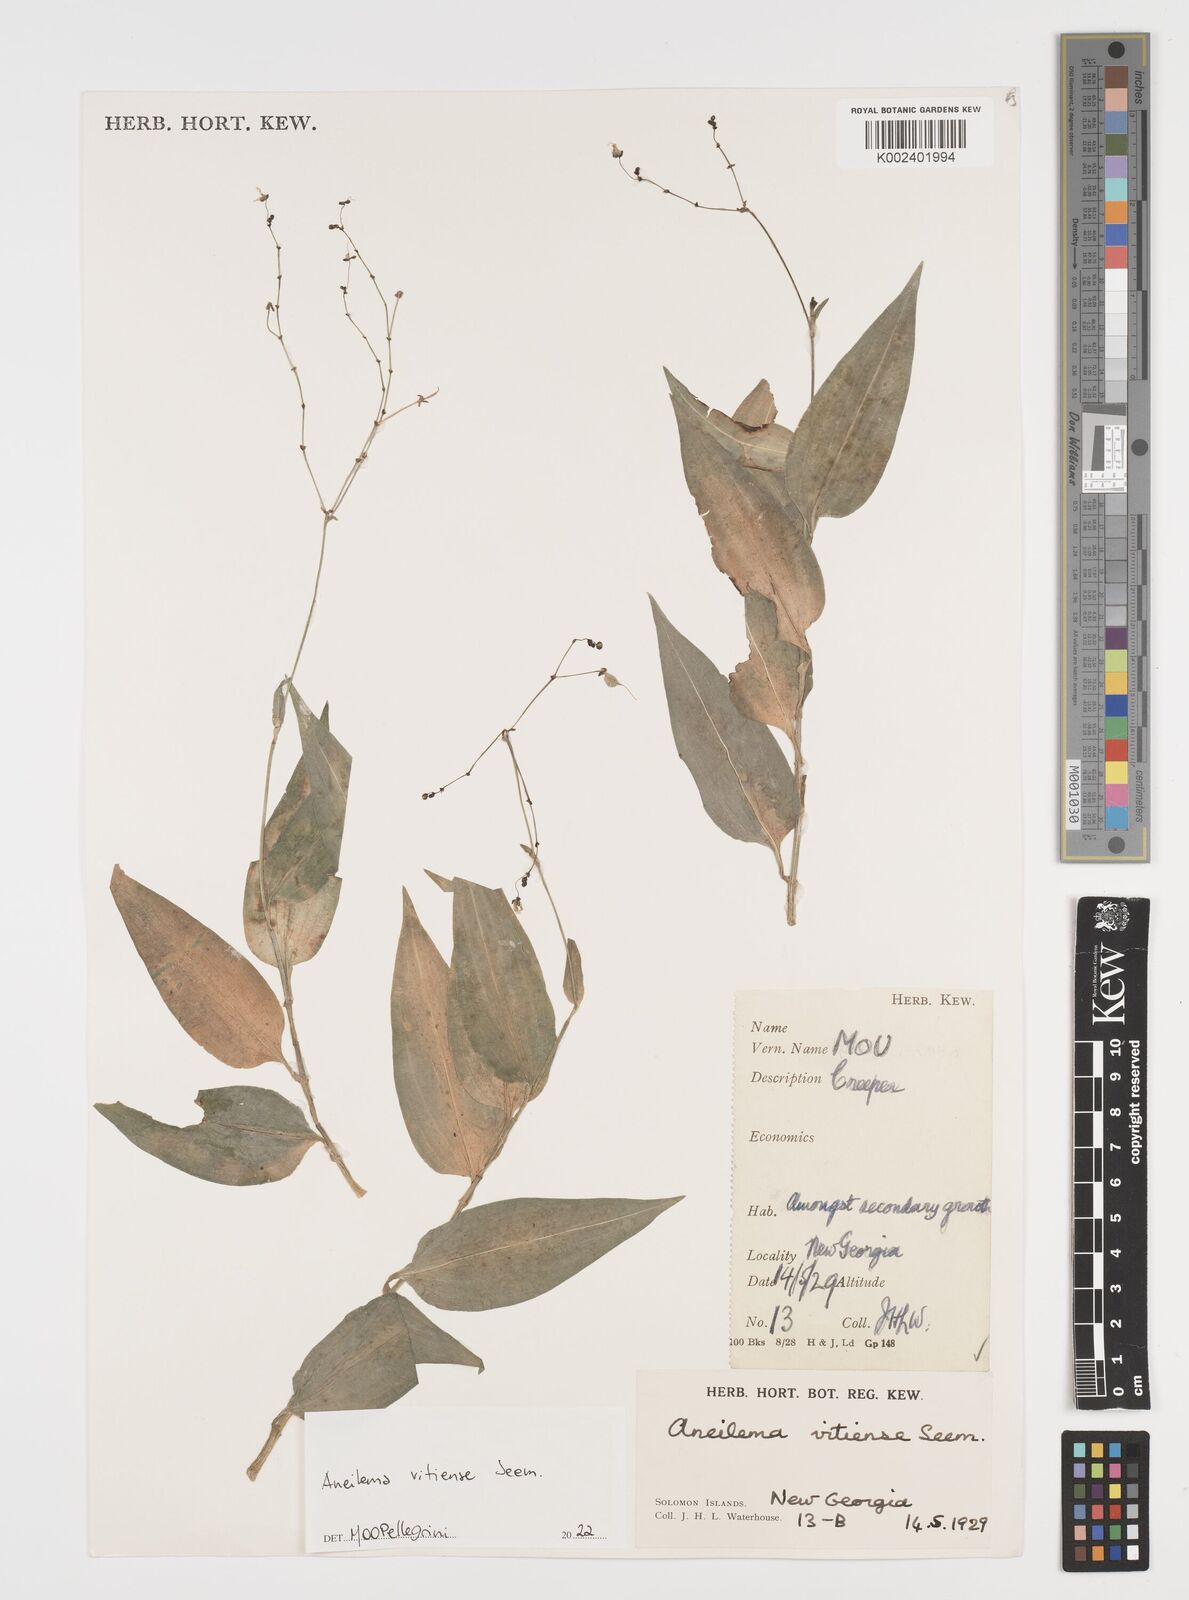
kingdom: Plantae
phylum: Tracheophyta
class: Liliopsida
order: Commelinales
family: Commelinaceae
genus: Rhopalephora
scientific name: Rhopalephora vitiensis
